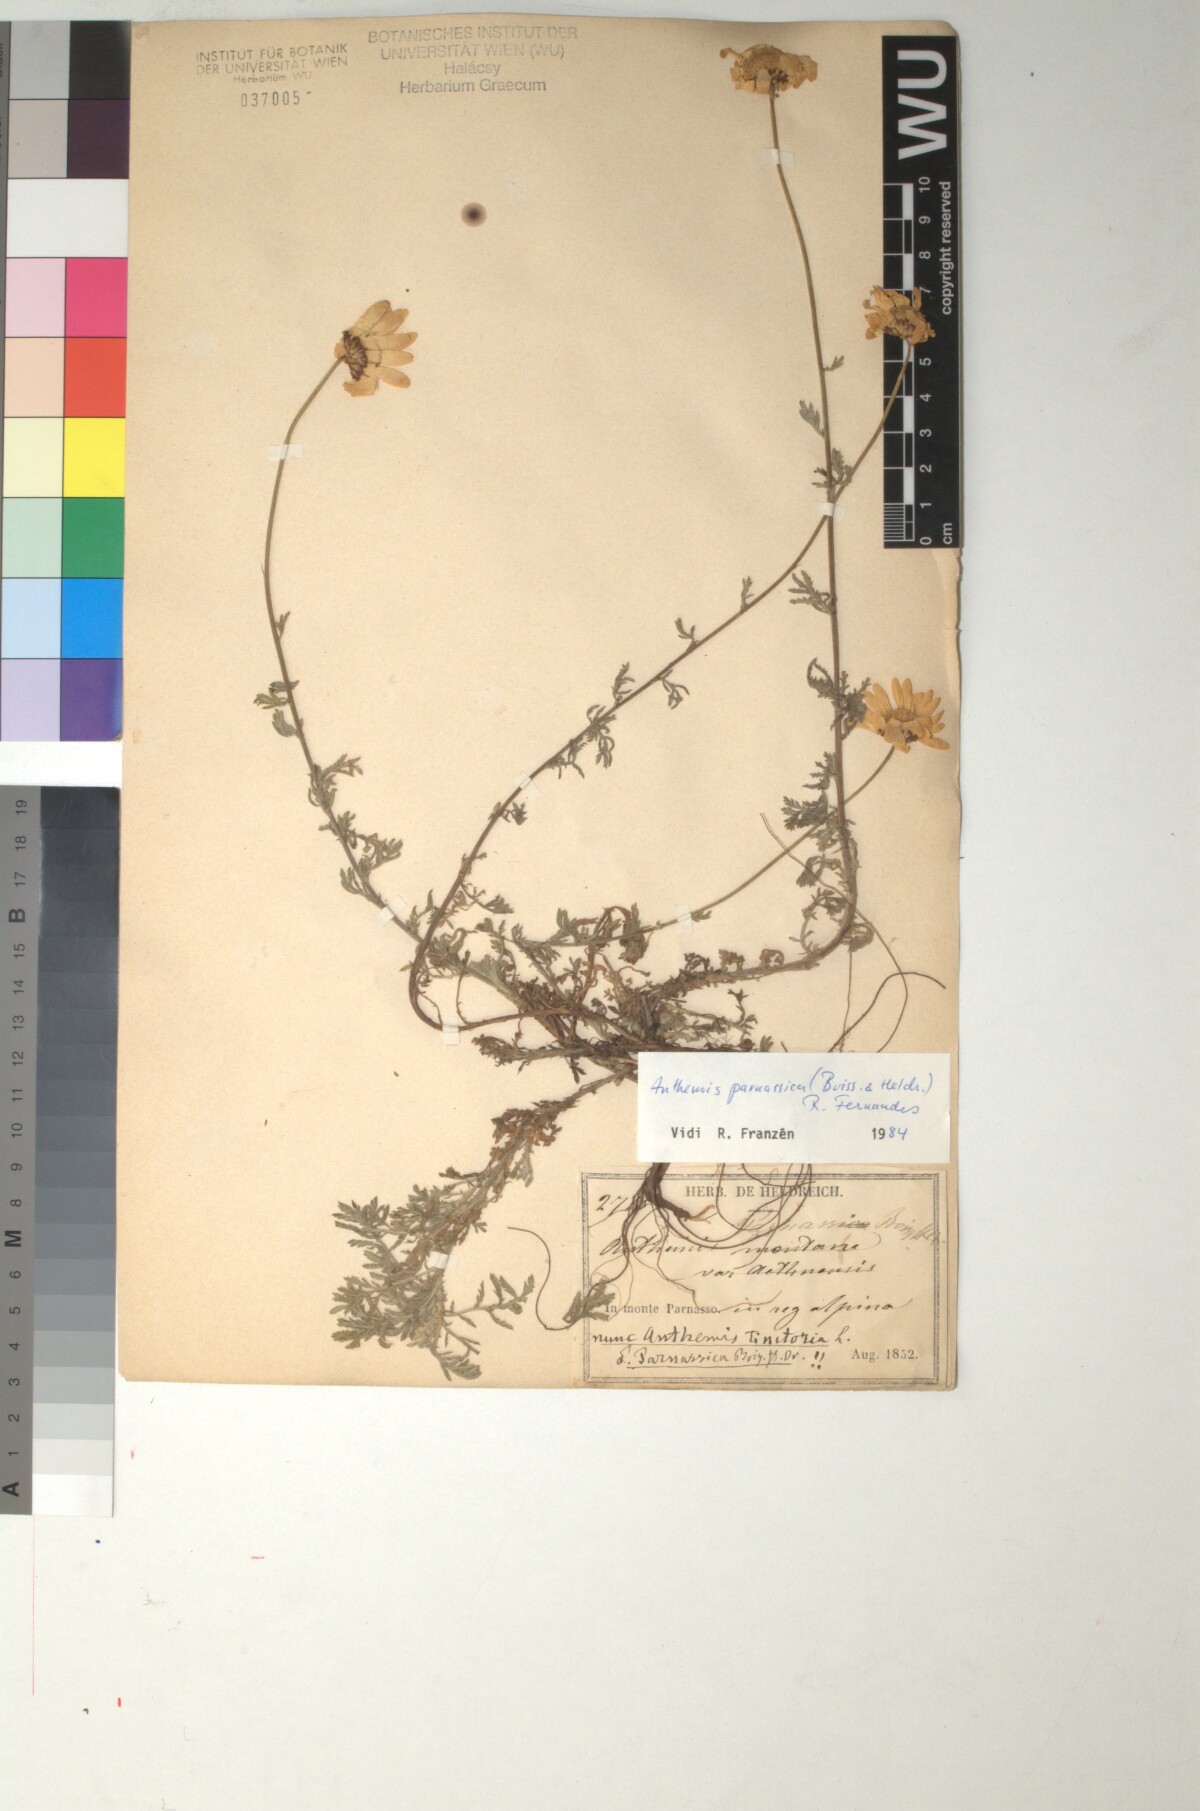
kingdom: Plantae
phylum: Tracheophyta
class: Magnoliopsida
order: Asterales
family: Asteraceae
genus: Cota
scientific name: Cota tinctoria
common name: Golden chamomile
